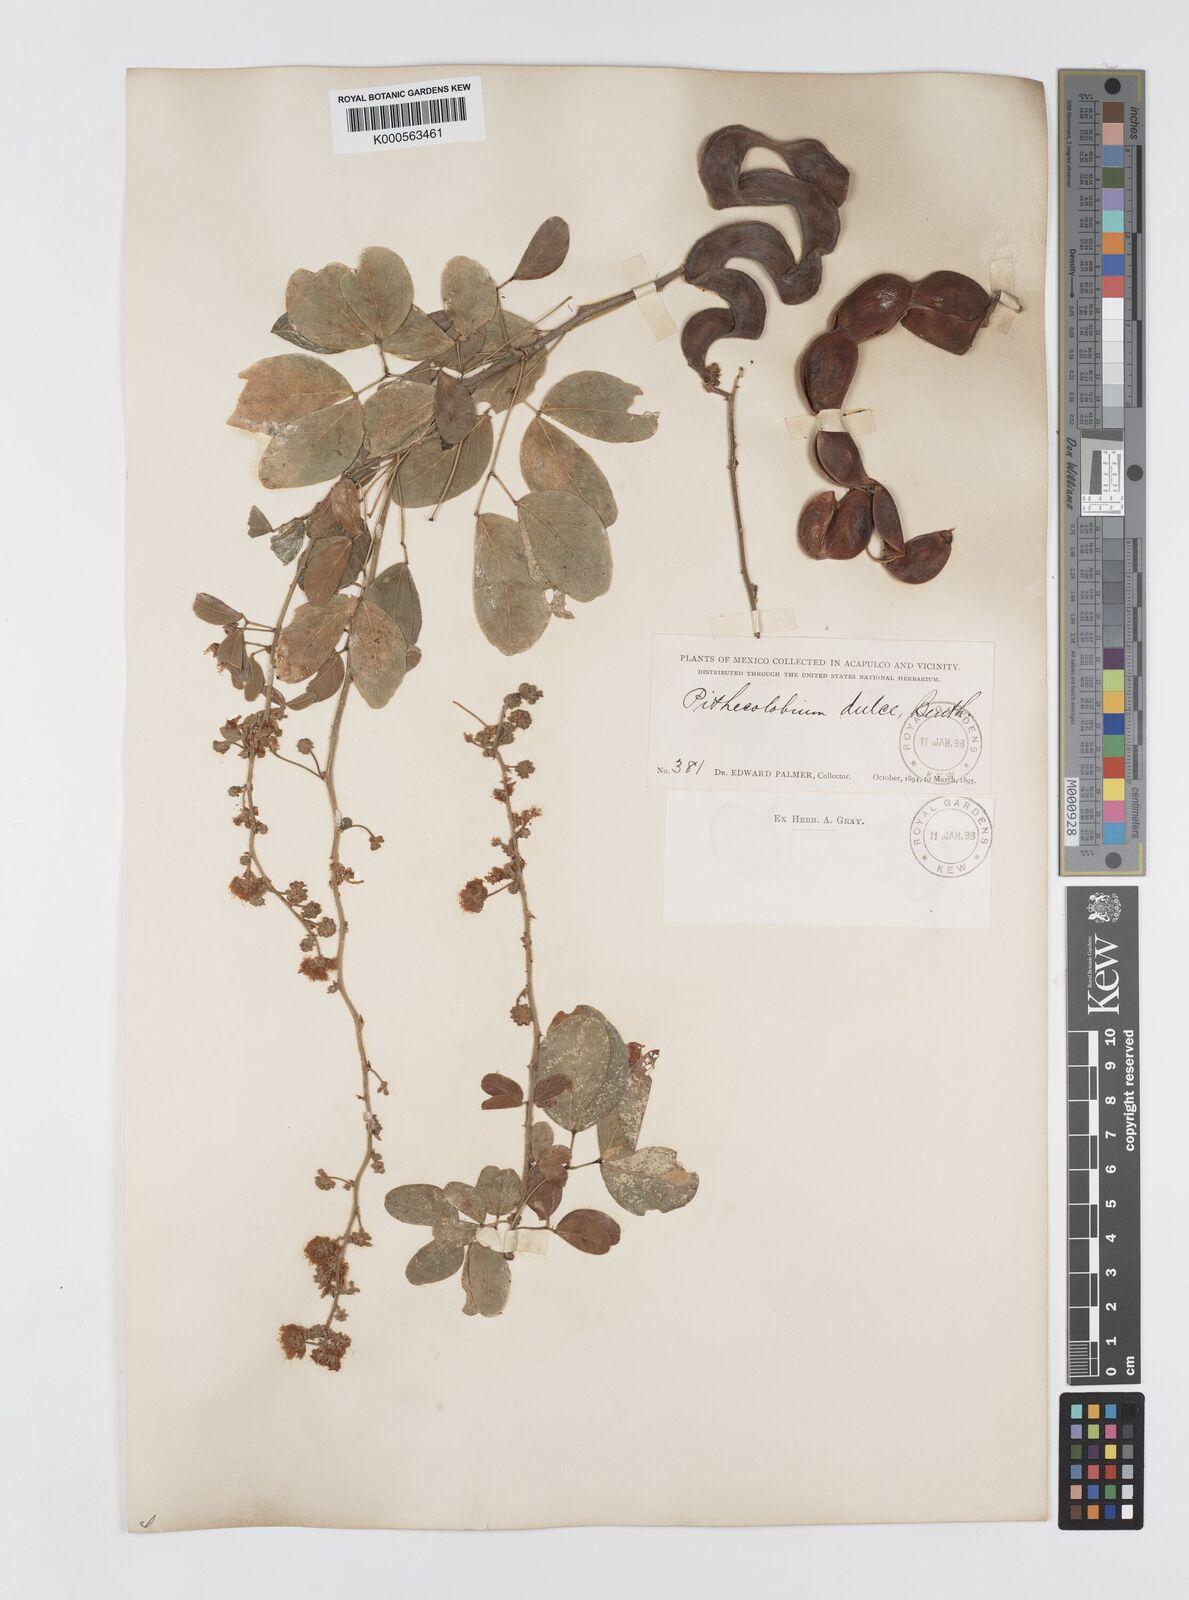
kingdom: Plantae
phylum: Tracheophyta
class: Magnoliopsida
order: Fabales
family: Fabaceae
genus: Pithecellobium
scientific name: Pithecellobium dulce
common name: Monkeypod
